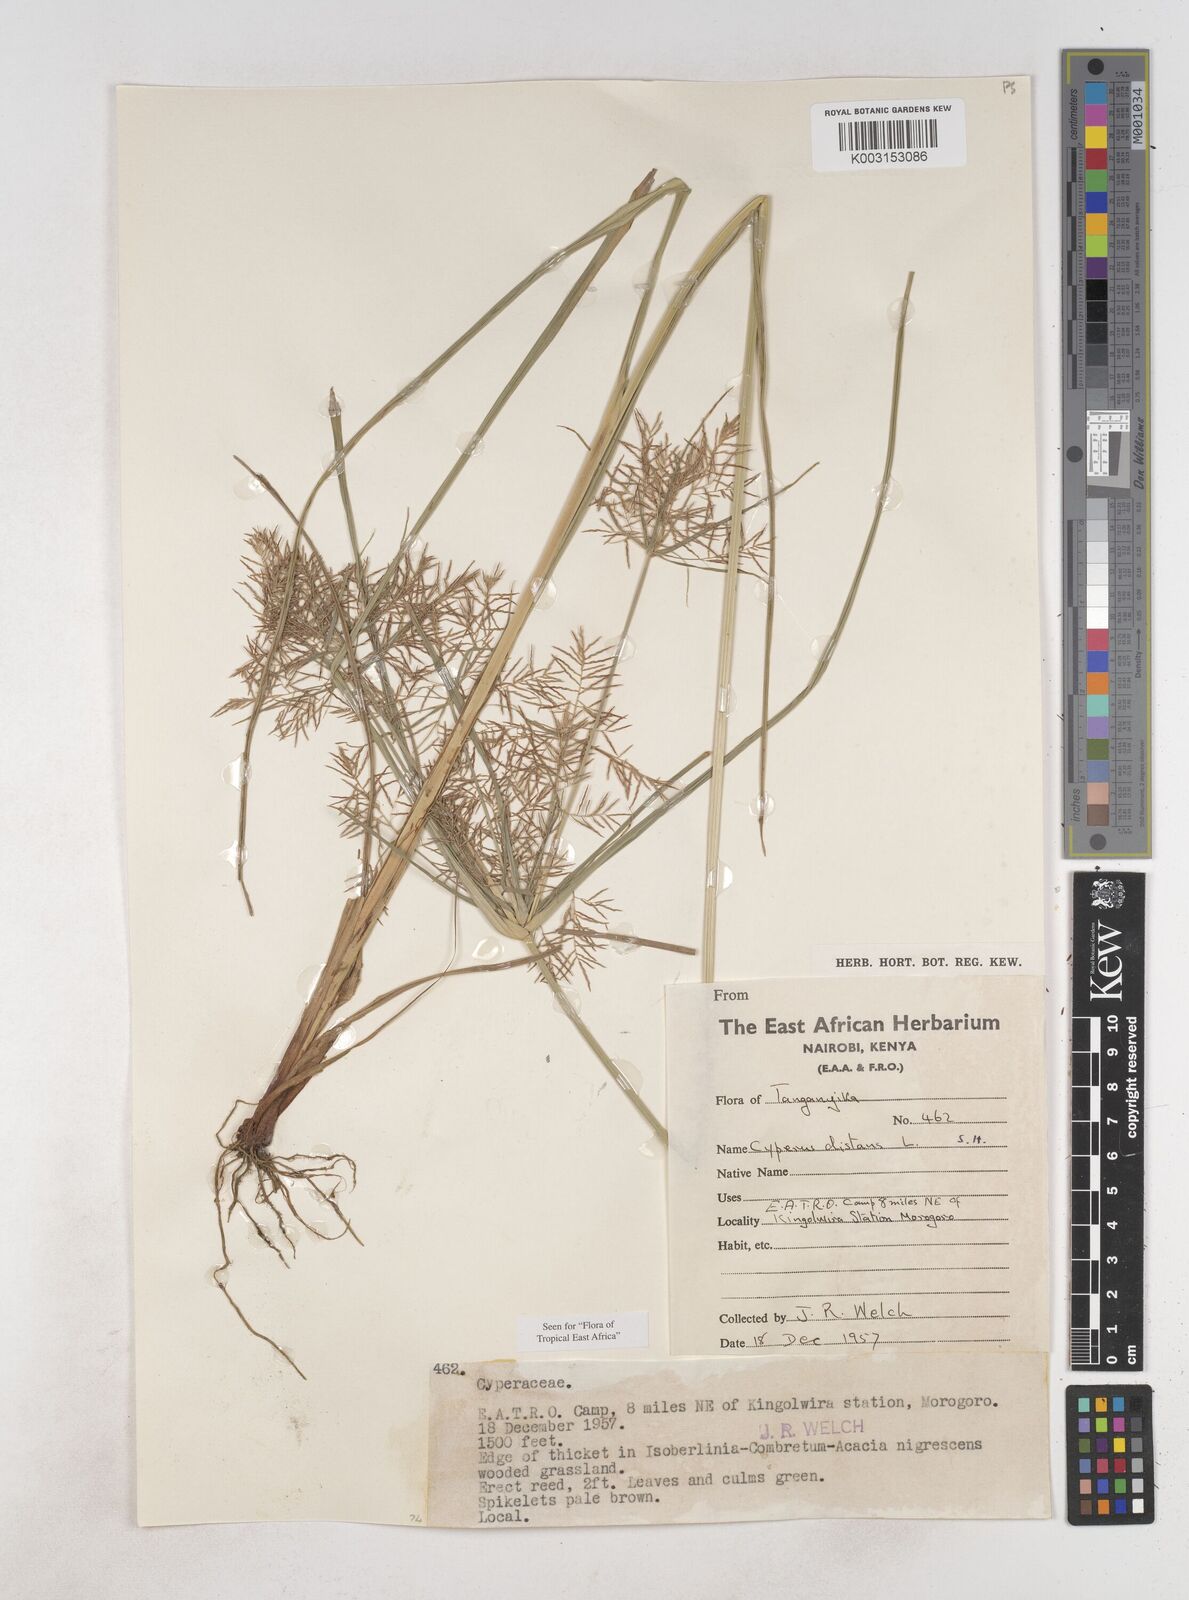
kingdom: Plantae
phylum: Tracheophyta
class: Liliopsida
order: Poales
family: Cyperaceae
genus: Cyperus
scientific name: Cyperus distans
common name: Slender cyperus
